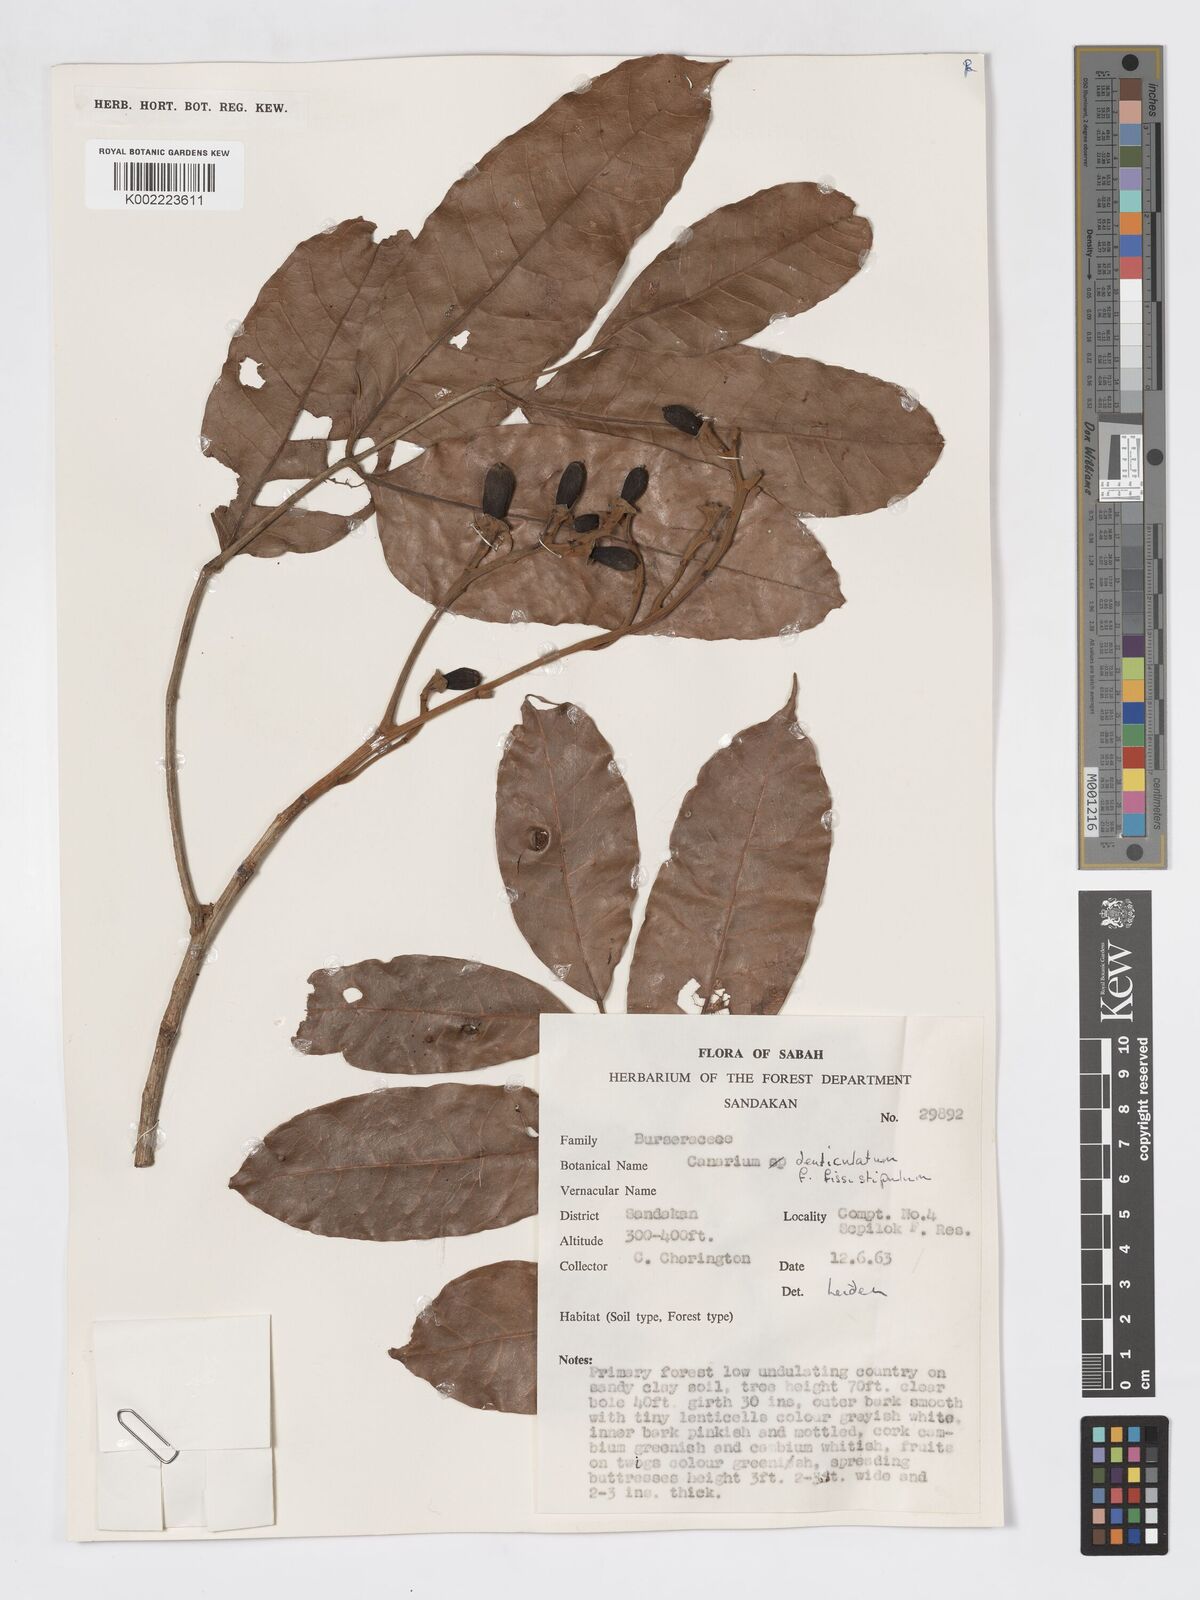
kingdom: Plantae
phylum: Tracheophyta
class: Magnoliopsida
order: Sapindales
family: Burseraceae
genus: Canarium
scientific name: Canarium denticulatum
